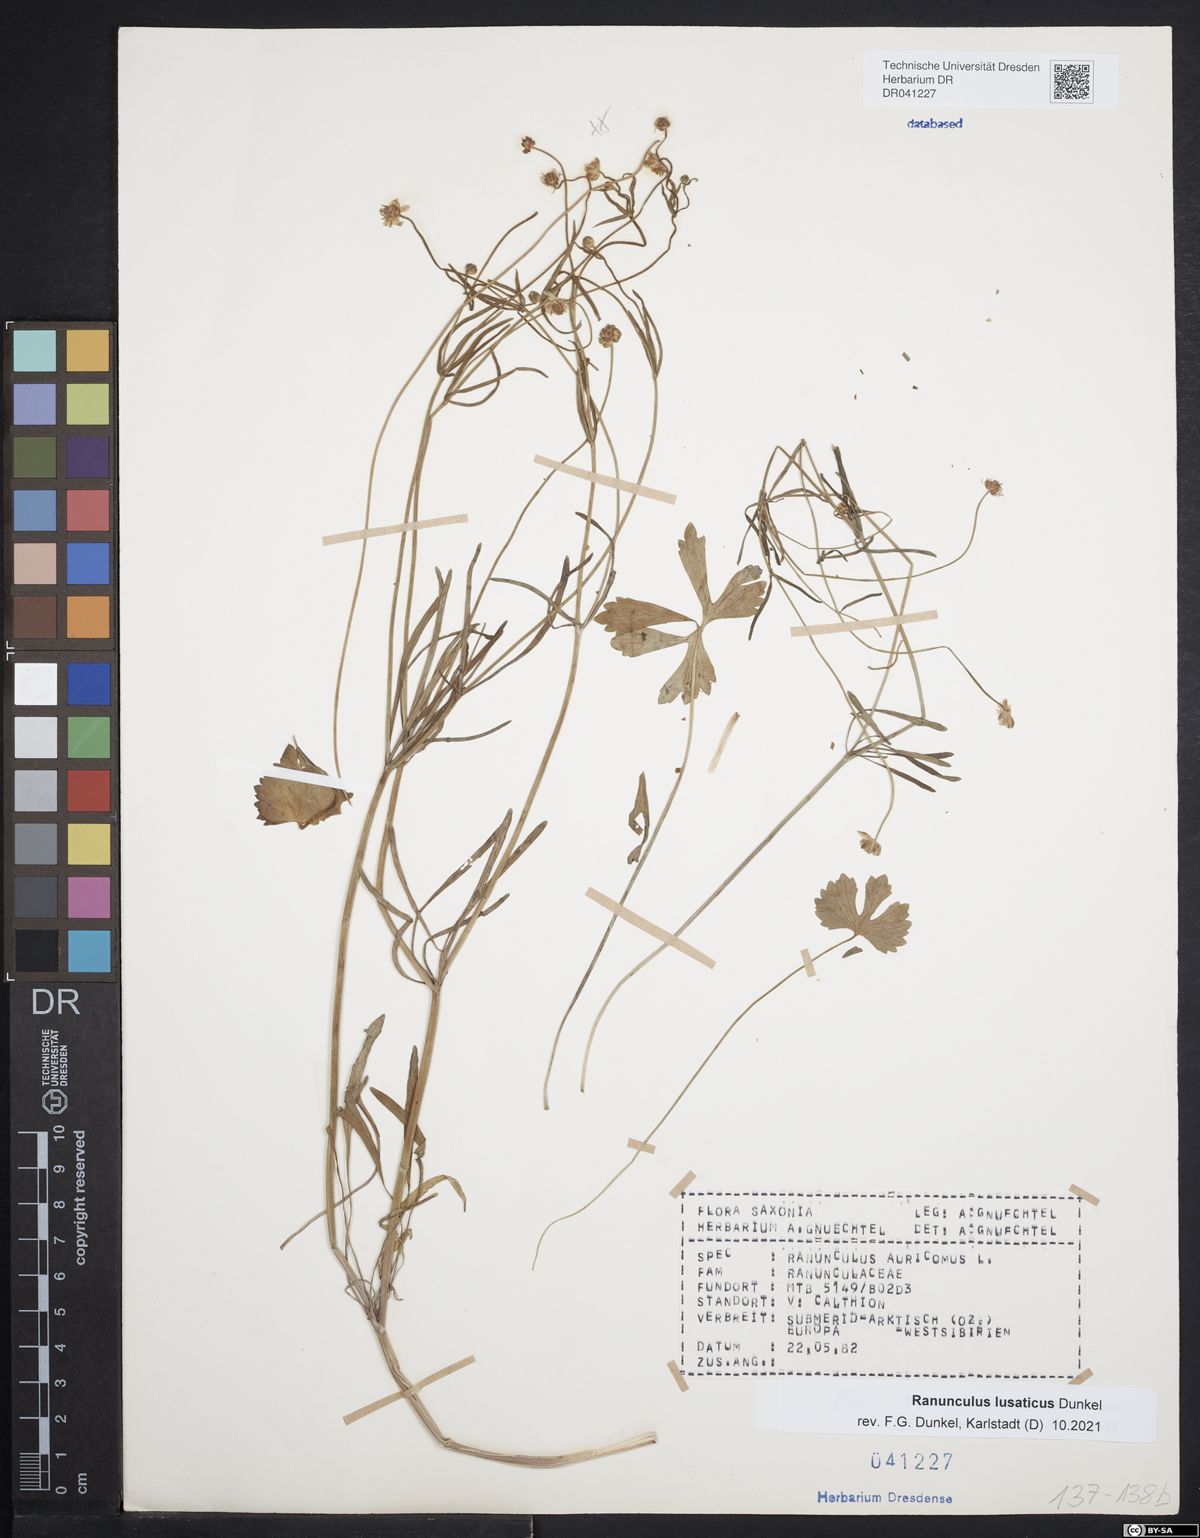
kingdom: Plantae
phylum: Tracheophyta
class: Magnoliopsida
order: Ranunculales
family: Ranunculaceae
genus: Ranunculus
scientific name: Ranunculus lusaticus
